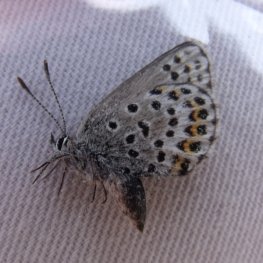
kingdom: Animalia
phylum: Arthropoda
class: Insecta
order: Lepidoptera
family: Lycaenidae
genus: Lycaeides
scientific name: Lycaeides idas
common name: Northern Blue
